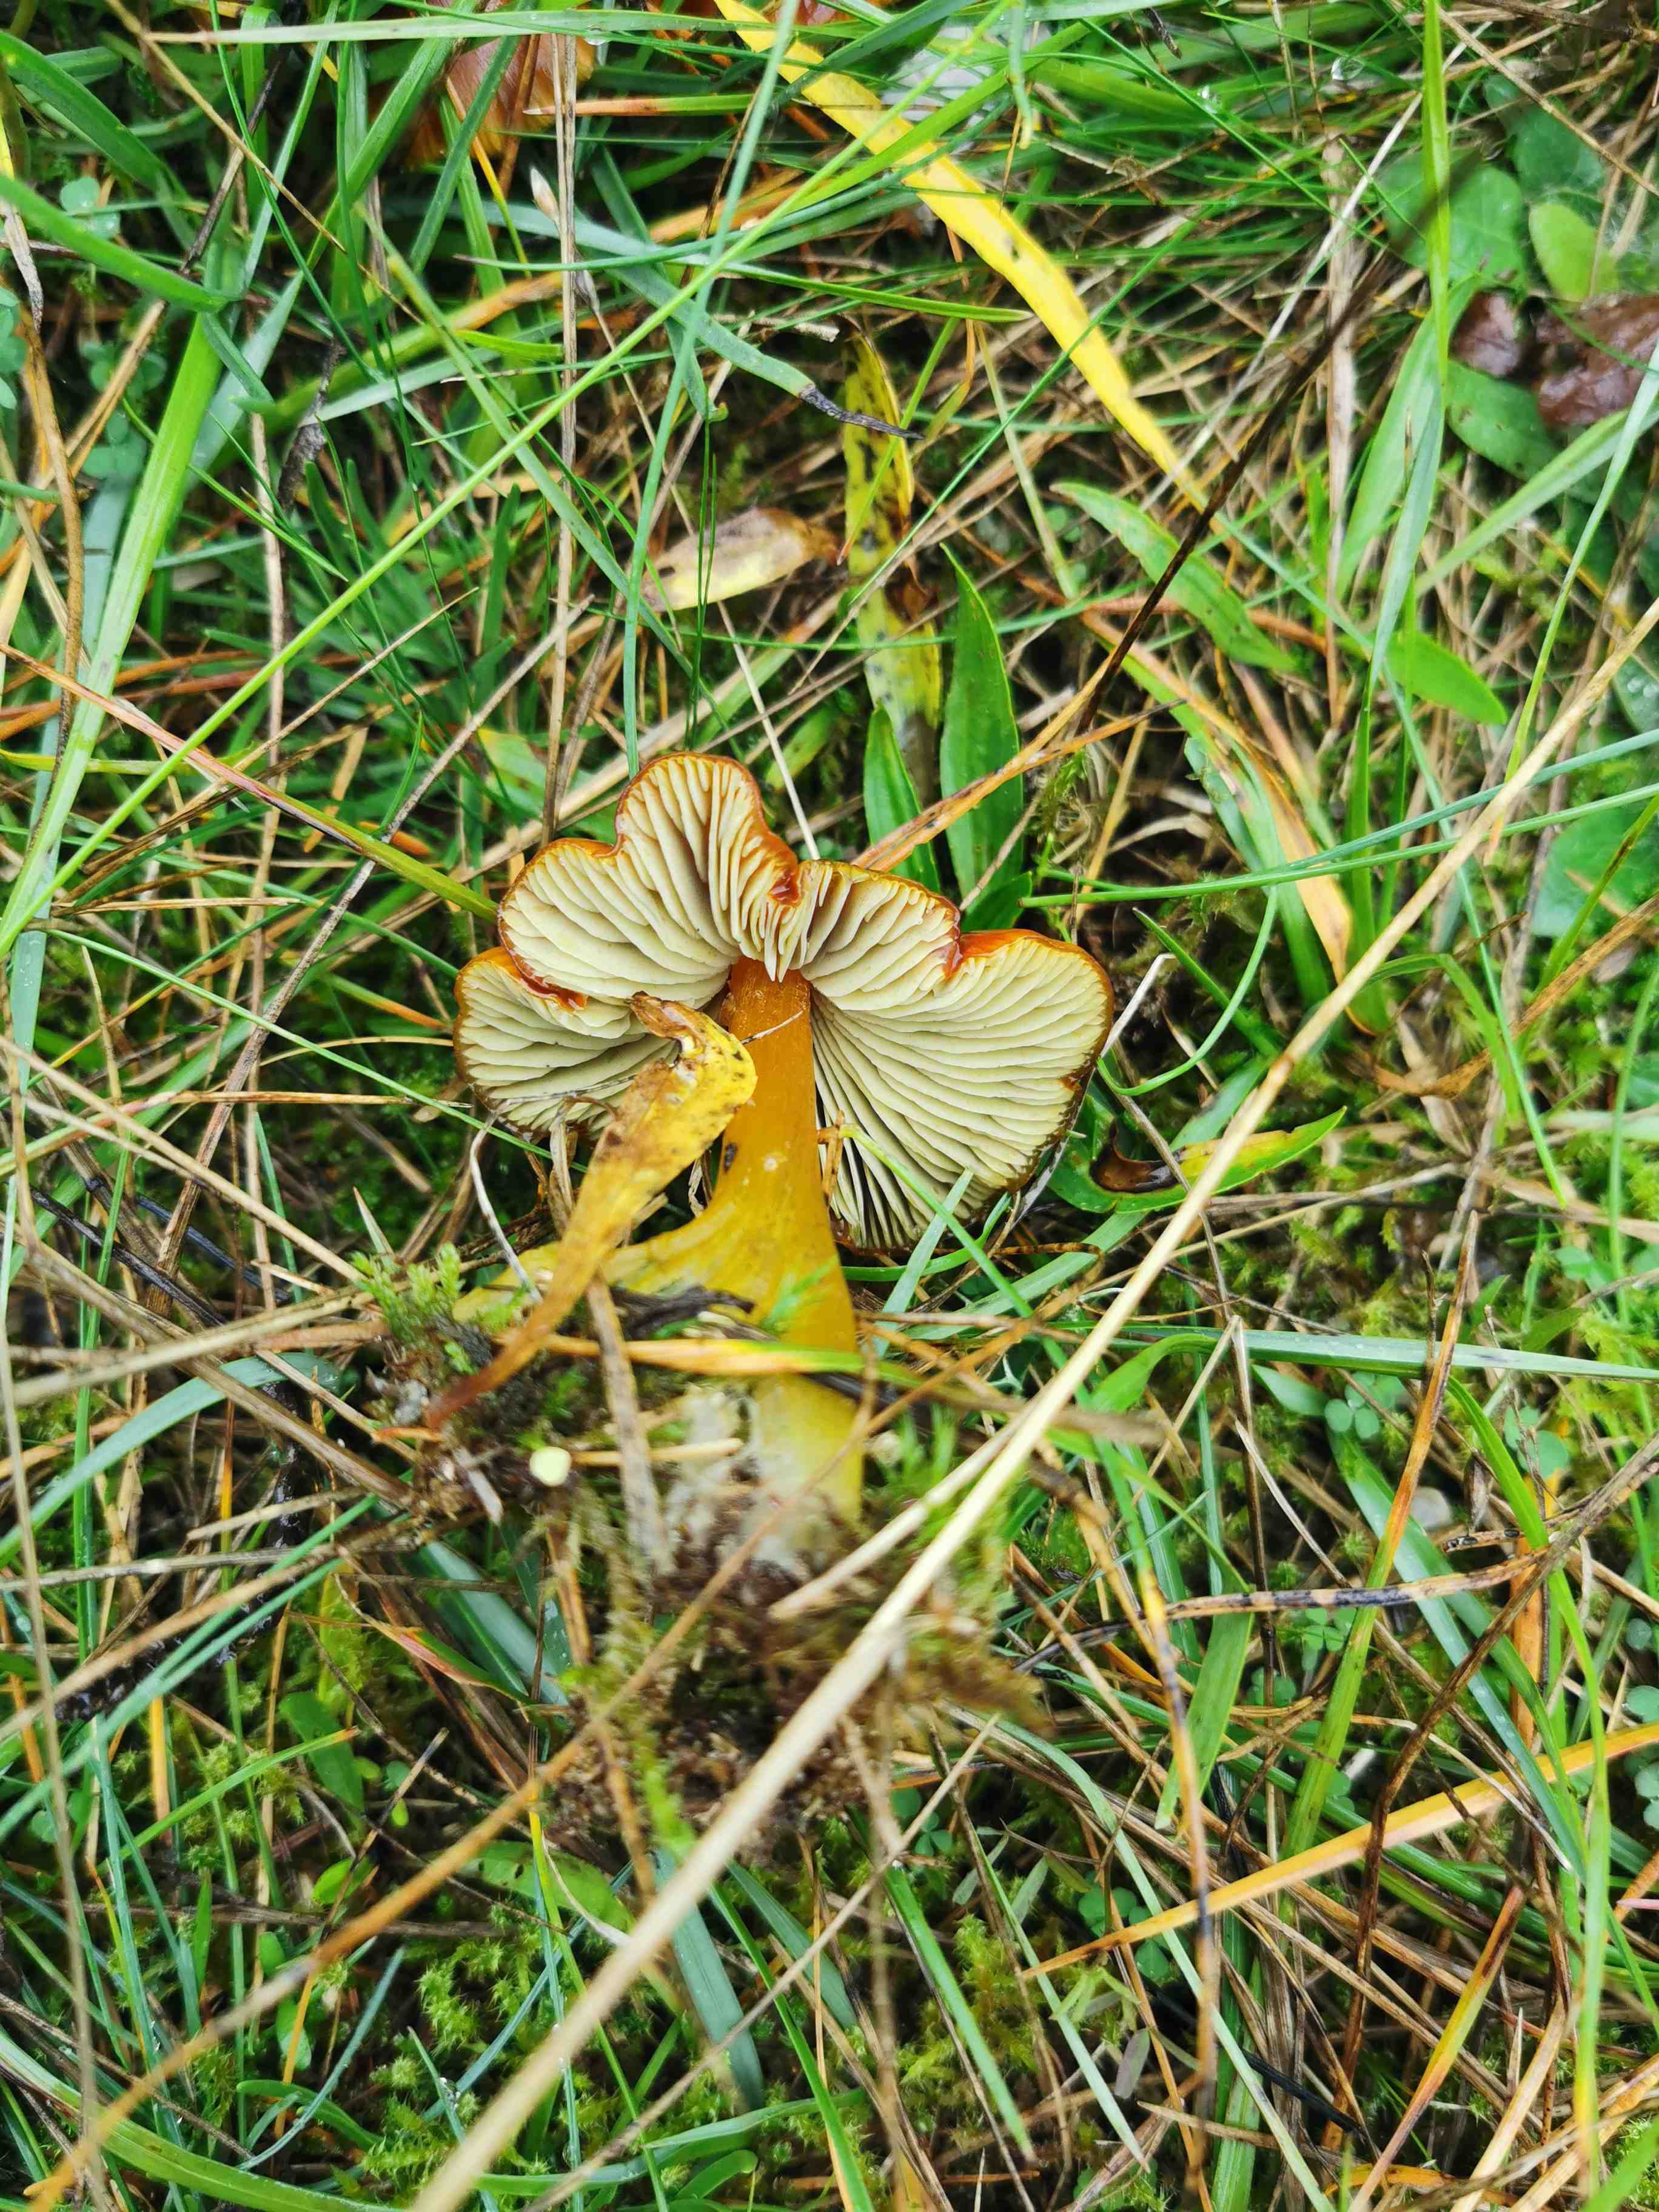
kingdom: Fungi
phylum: Basidiomycota
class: Agaricomycetes
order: Agaricales
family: Hygrophoraceae
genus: Hygrocybe
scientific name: Hygrocybe conica
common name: kegle-vokshat
